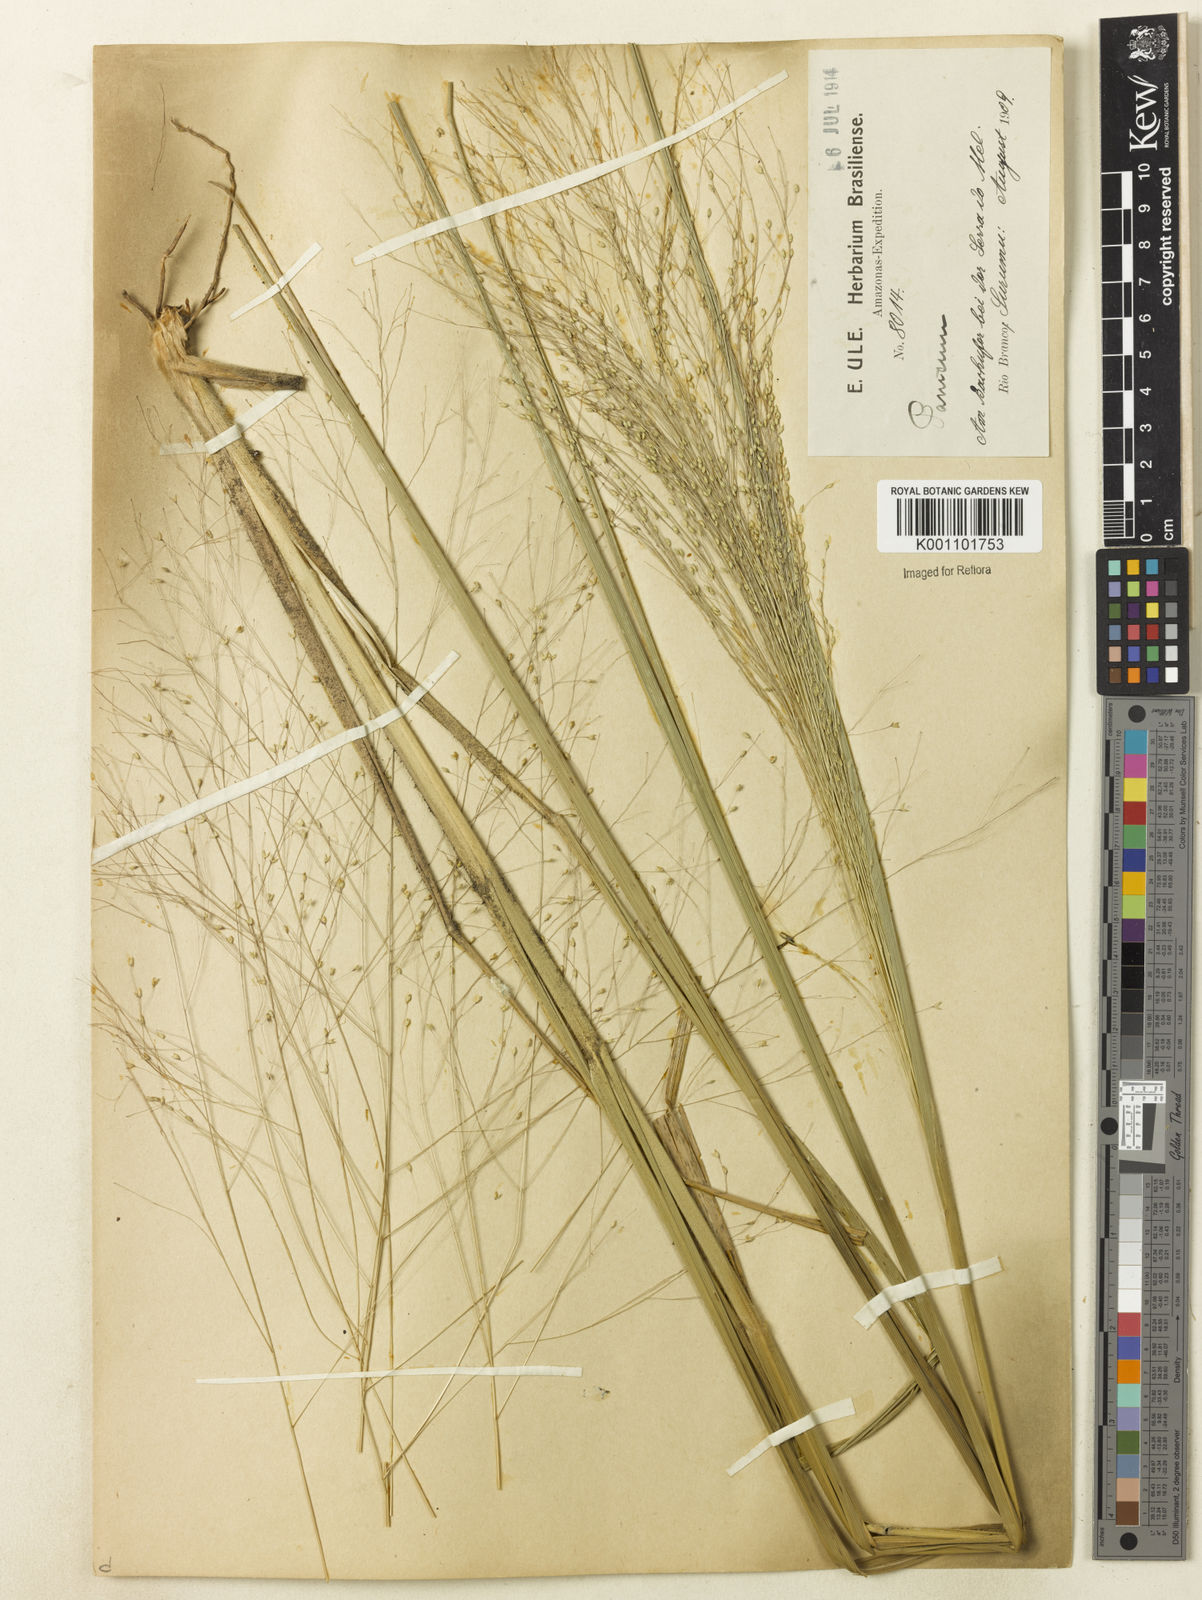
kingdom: Plantae
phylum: Tracheophyta
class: Liliopsida
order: Poales
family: Poaceae
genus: Panicum
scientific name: Panicum bergii
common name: Berg's panicgrass
